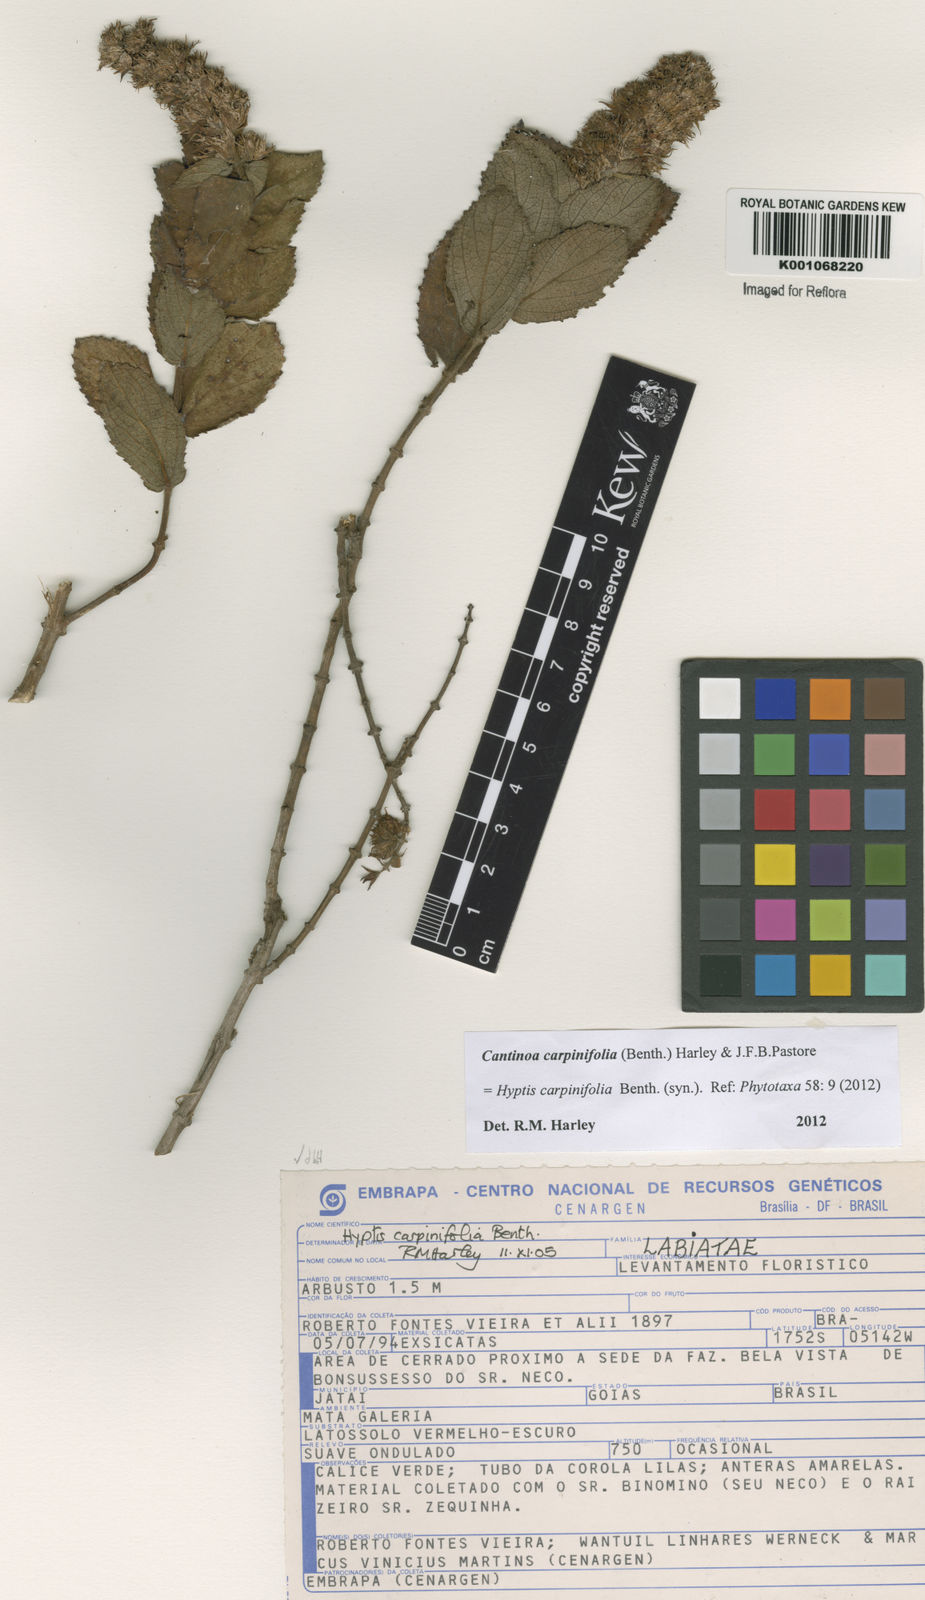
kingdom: Plantae
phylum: Tracheophyta
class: Magnoliopsida
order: Lamiales
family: Lamiaceae
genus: Cantinoa
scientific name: Cantinoa carpinifolia
